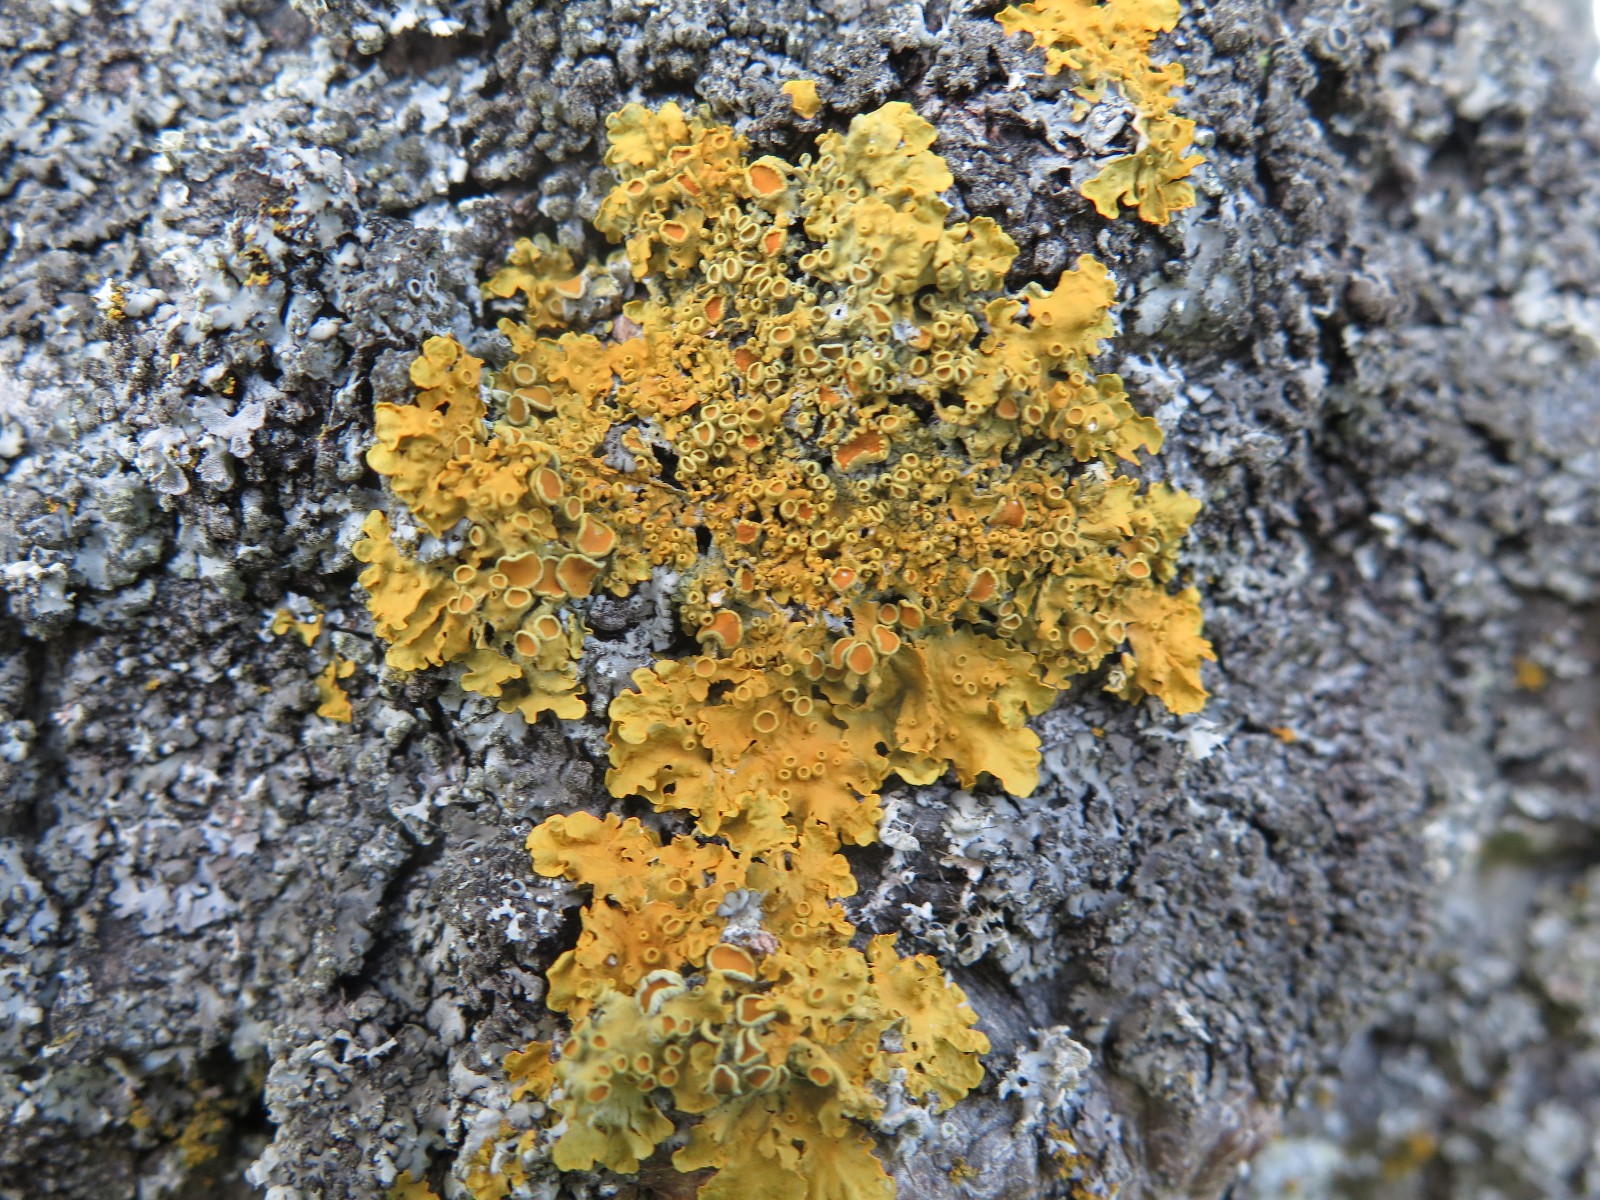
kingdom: Fungi
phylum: Ascomycota
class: Lecanoromycetes
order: Teloschistales
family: Teloschistaceae
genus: Xanthoria
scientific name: Xanthoria parietina
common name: almindelig væggelav
